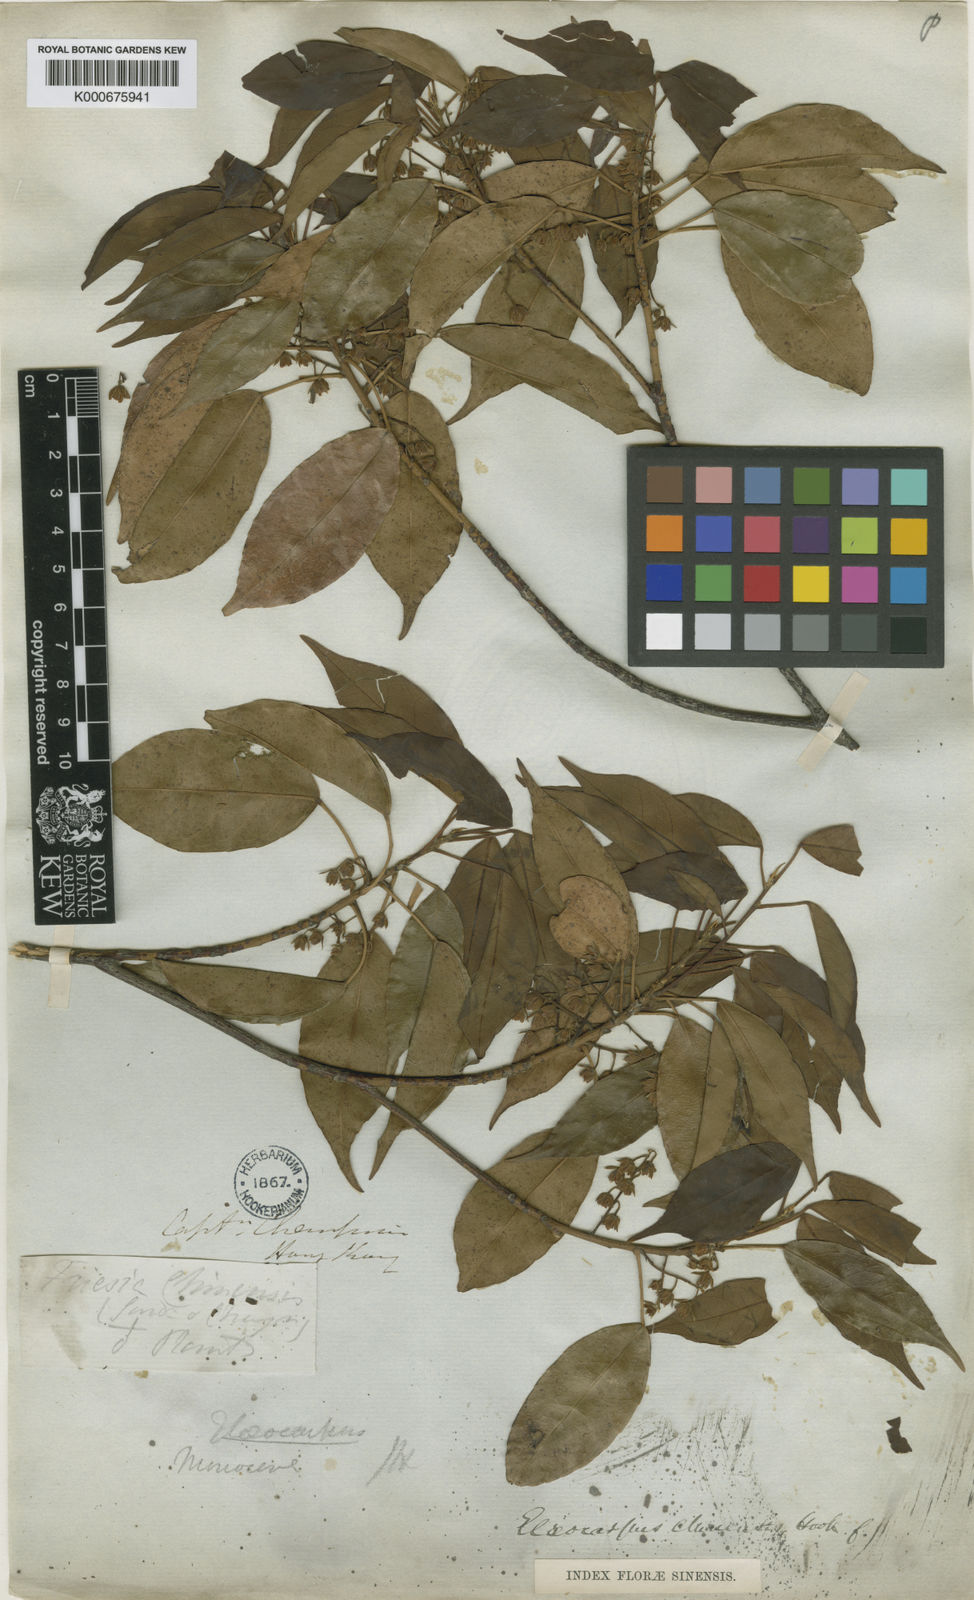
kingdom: Plantae
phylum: Tracheophyta
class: Magnoliopsida
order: Oxalidales
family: Elaeocarpaceae
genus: Elaeocarpus
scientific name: Elaeocarpus chinensis
